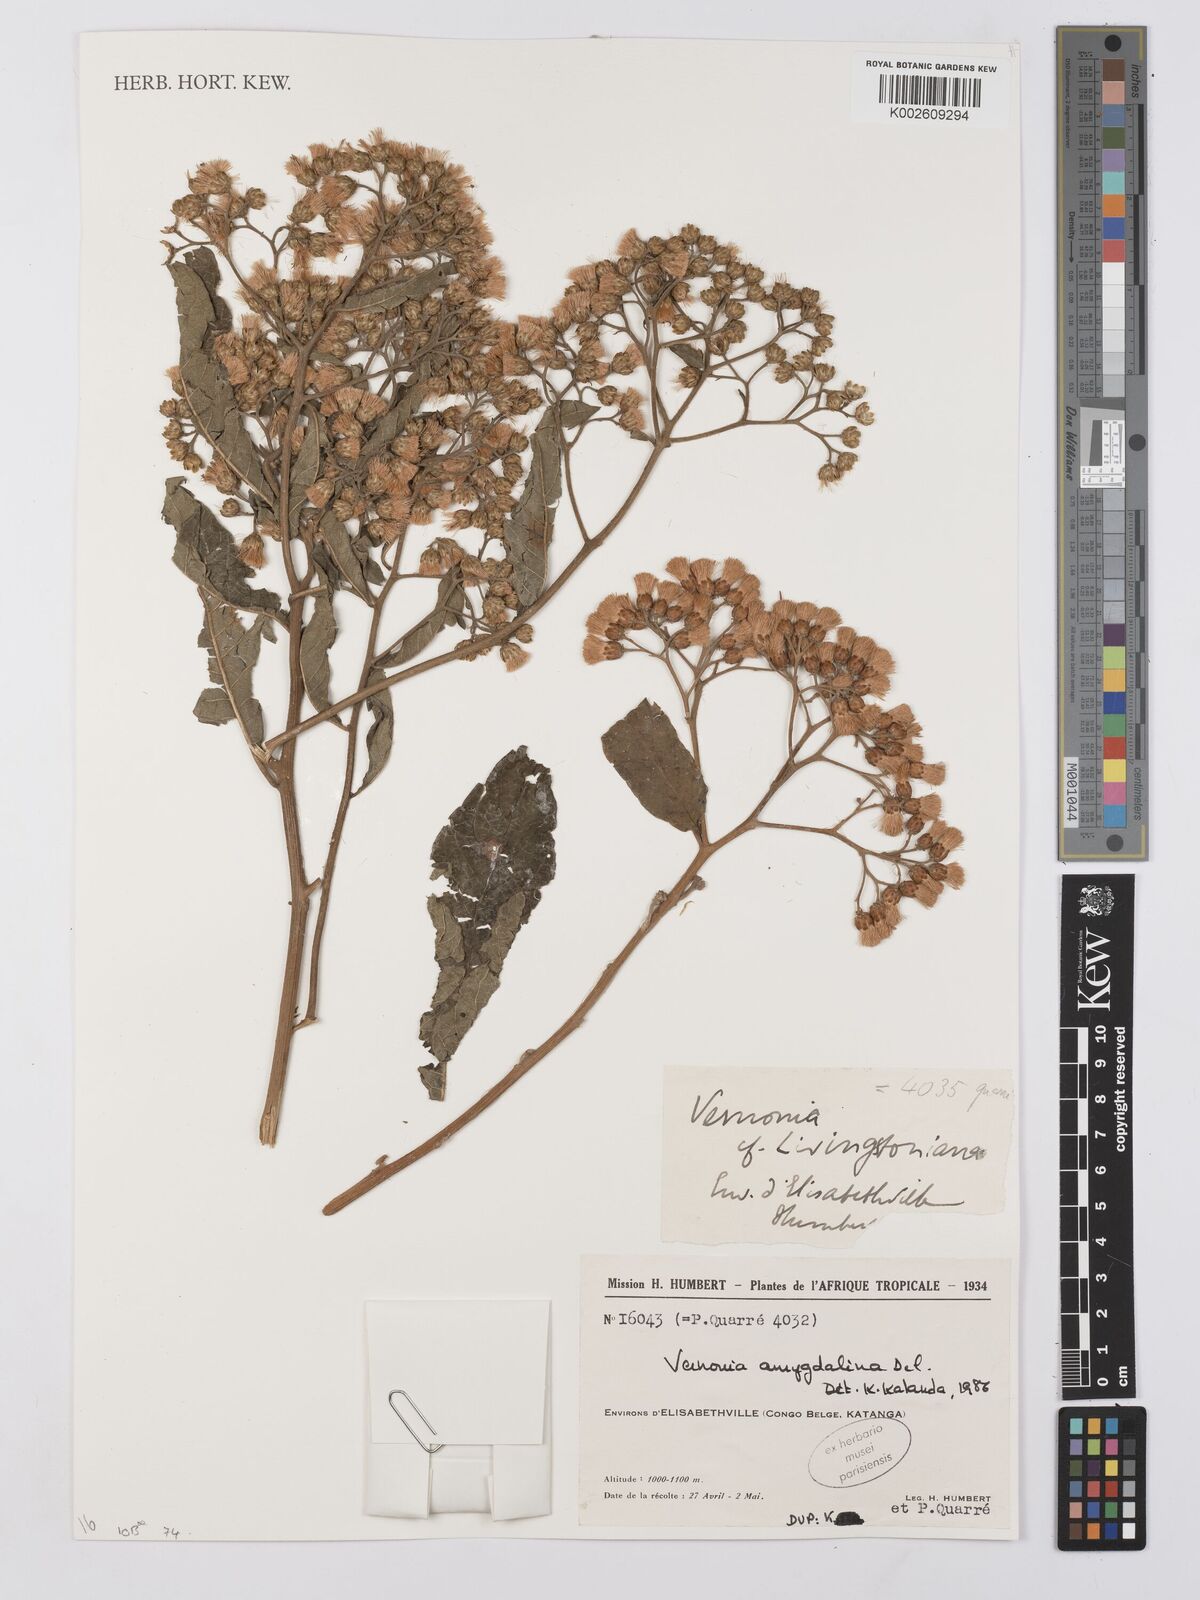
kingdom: Plantae
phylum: Tracheophyta
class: Magnoliopsida
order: Asterales
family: Asteraceae
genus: Gymnanthemum
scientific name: Gymnanthemum thomsonianum
